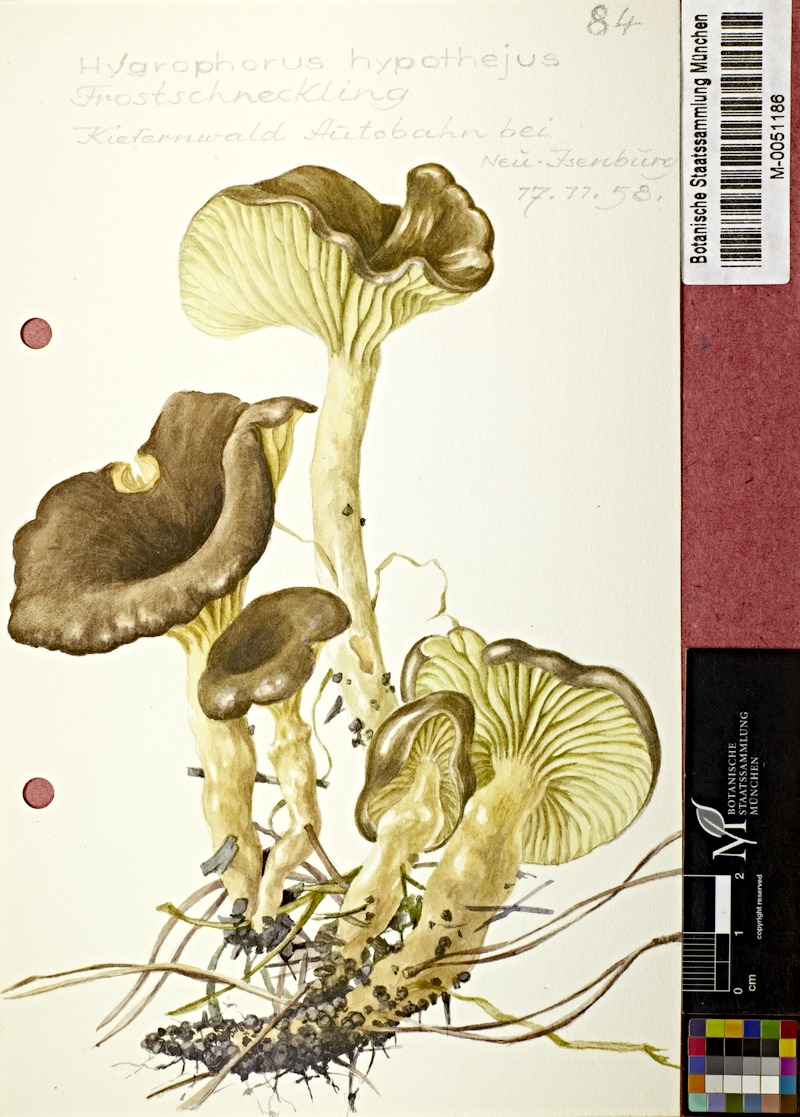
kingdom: Fungi
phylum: Basidiomycota
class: Agaricomycetes
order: Agaricales
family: Hygrophoraceae
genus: Hygrophorus
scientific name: Hygrophorus hypothejus
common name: Herald of winter
